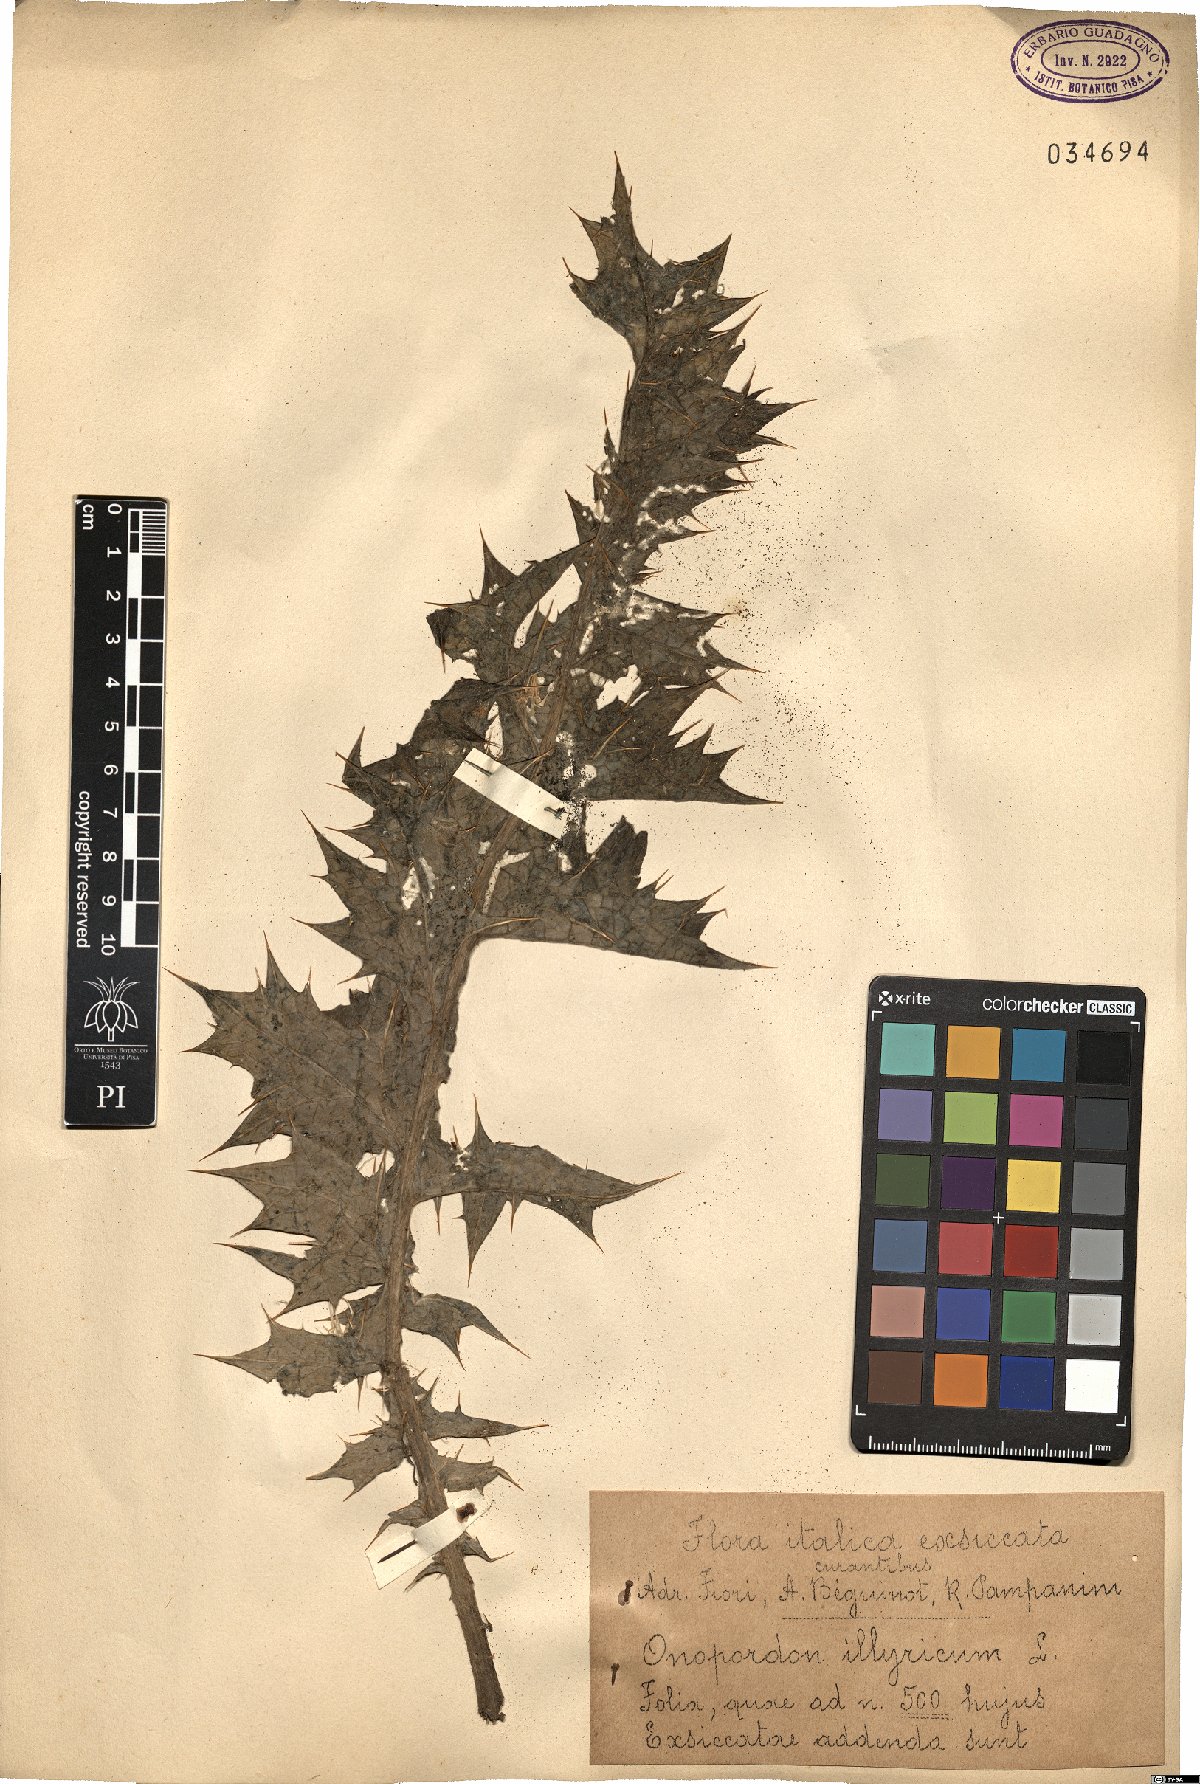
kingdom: Plantae
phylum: Tracheophyta
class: Magnoliopsida
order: Asterales
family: Asteraceae
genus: Onopordum
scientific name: Onopordum illyricum
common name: Illyrian thistle
